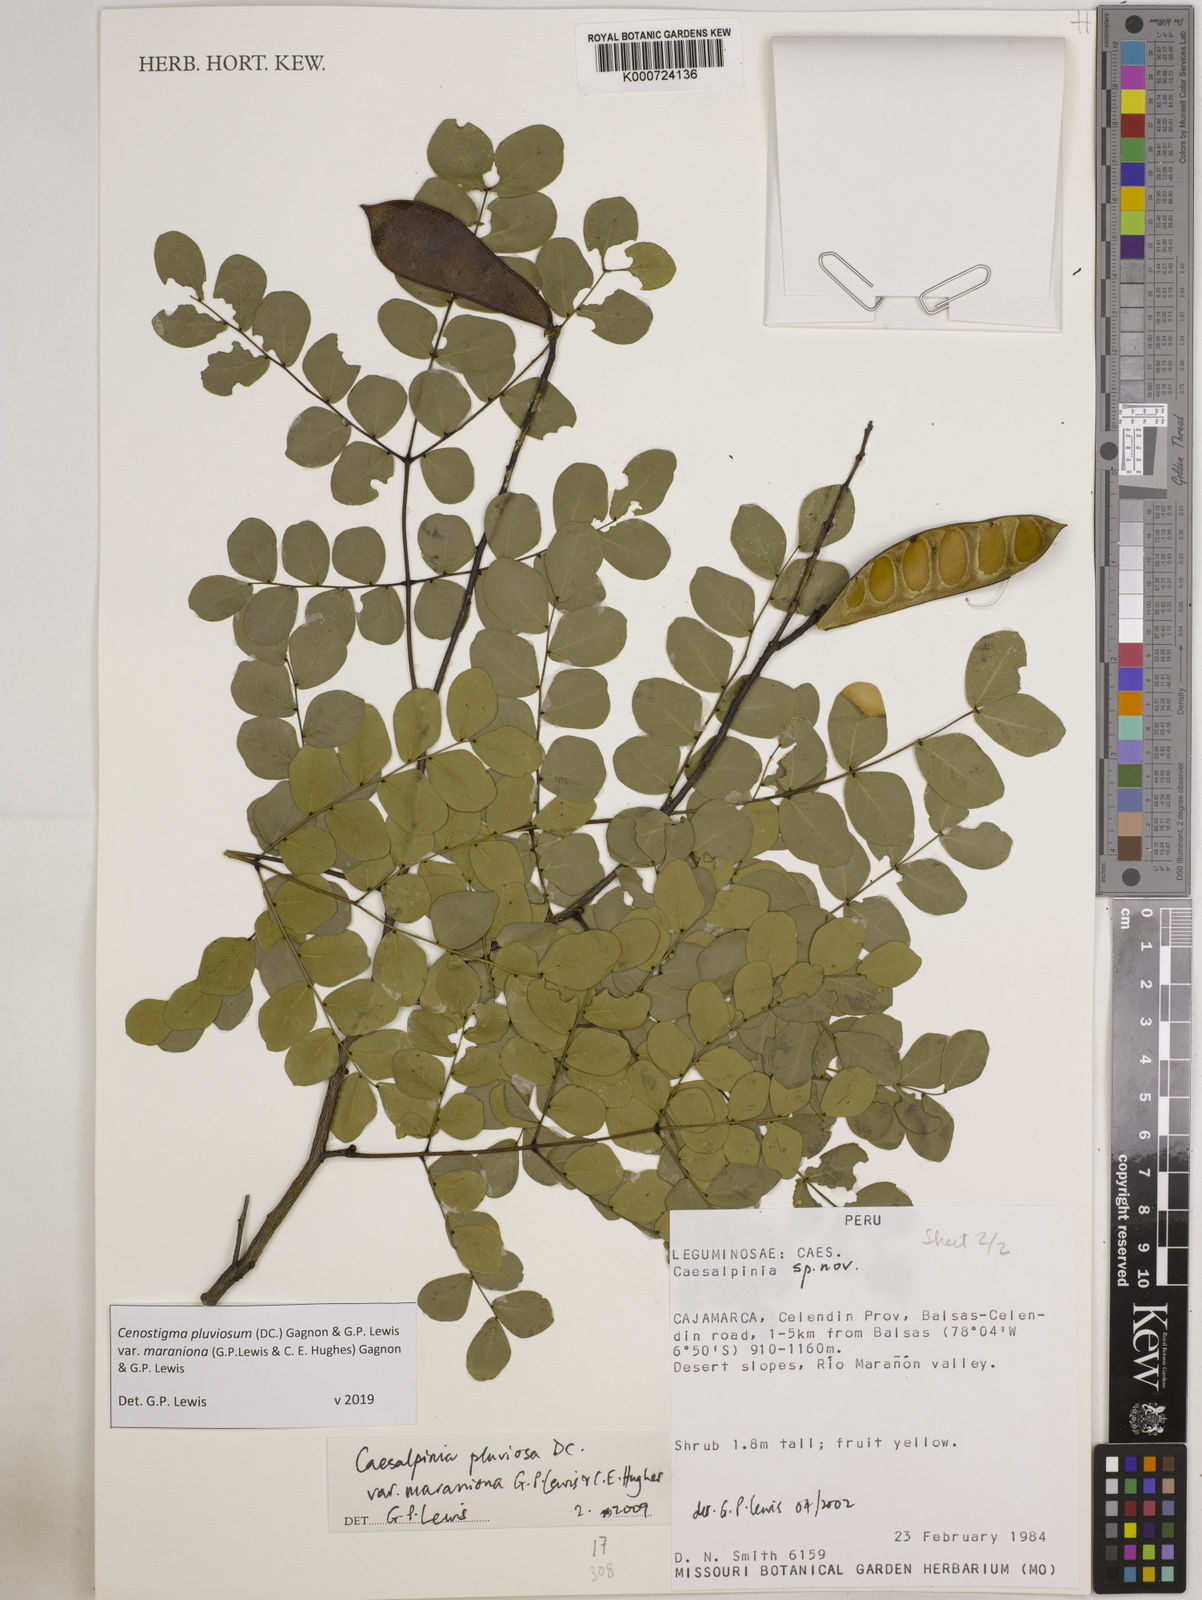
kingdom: Plantae
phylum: Tracheophyta
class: Magnoliopsida
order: Fabales
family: Fabaceae
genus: Cenostigma
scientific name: Cenostigma pluviosum
